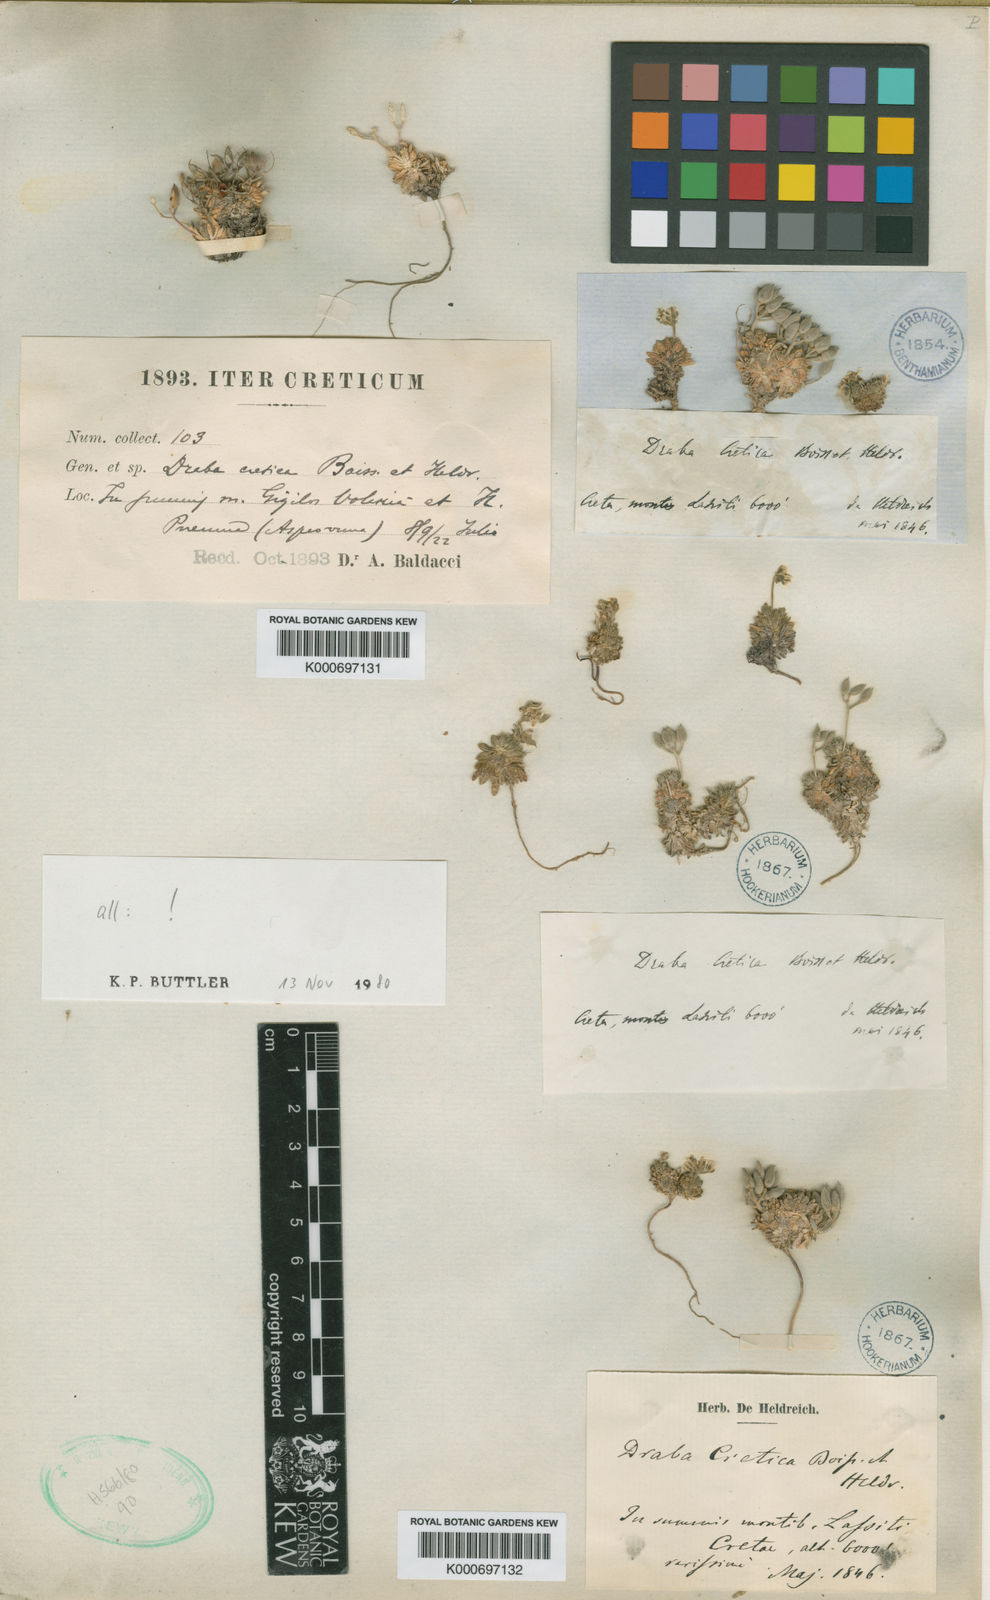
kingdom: Plantae
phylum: Tracheophyta
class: Magnoliopsida
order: Brassicales
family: Brassicaceae
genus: Draba
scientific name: Draba cretica
